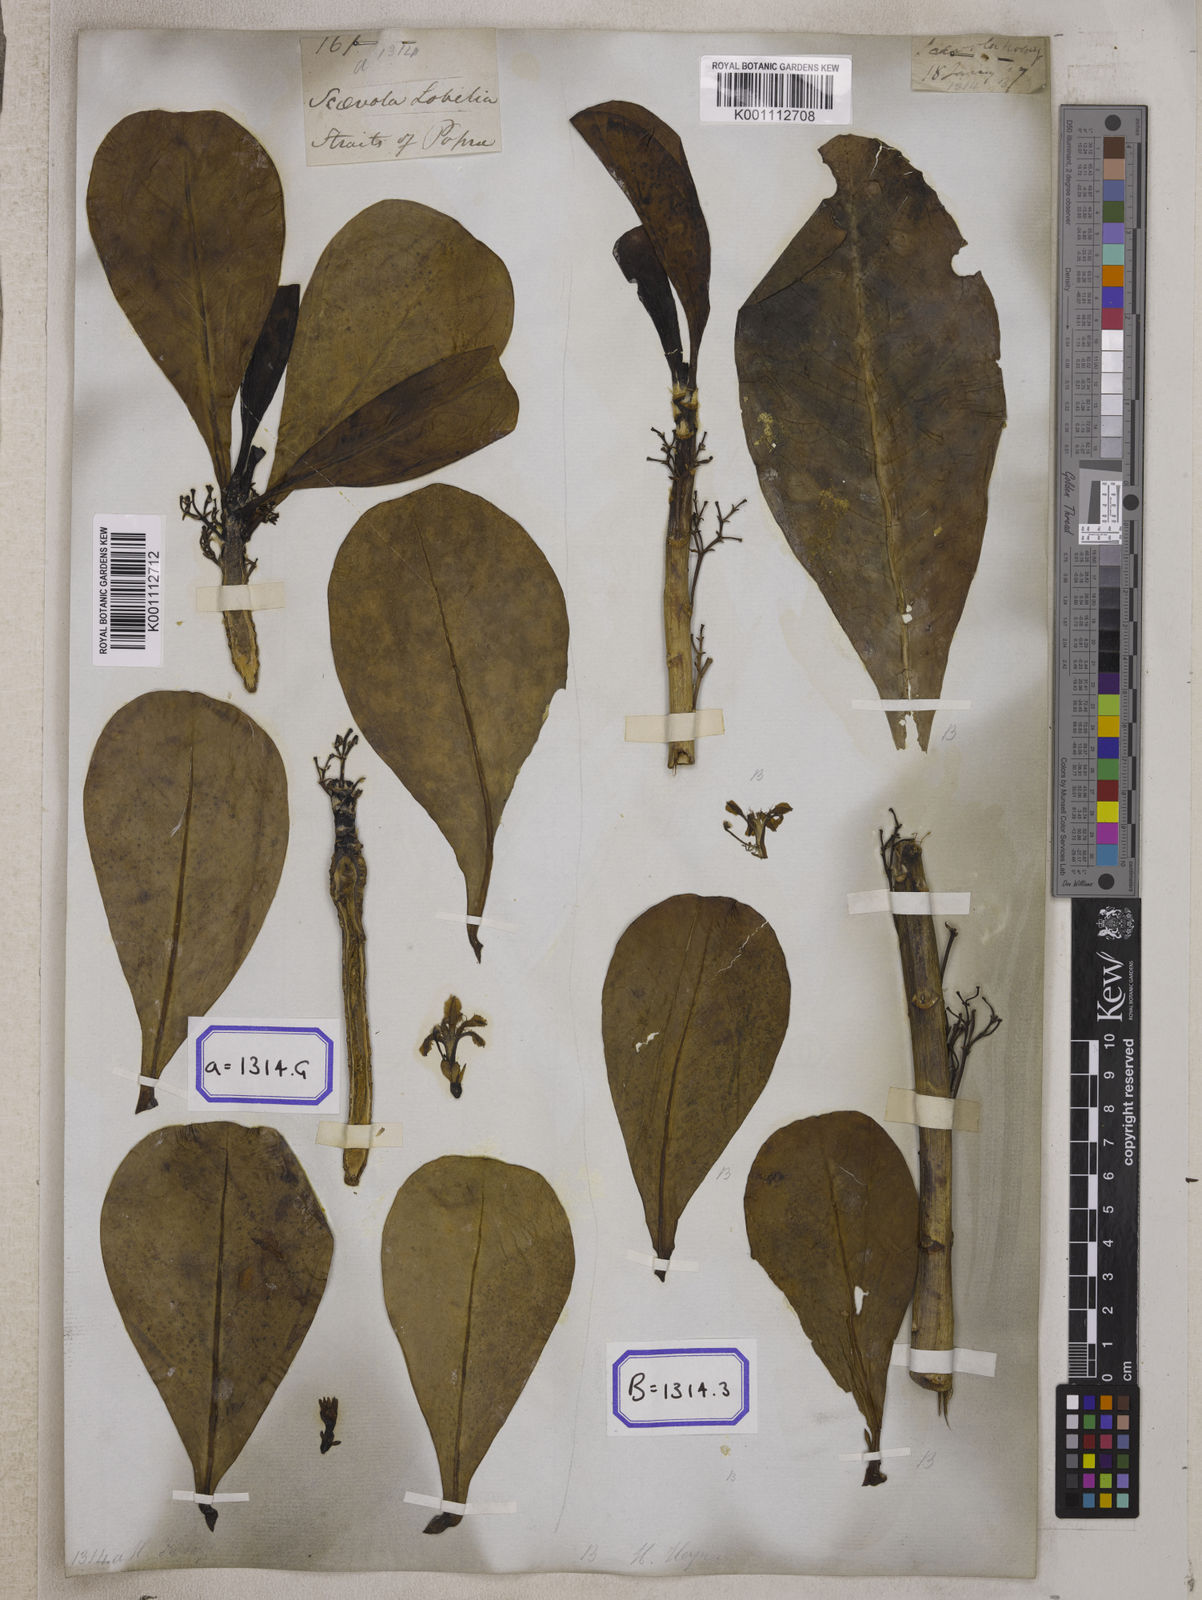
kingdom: Plantae
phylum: Tracheophyta
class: Magnoliopsida
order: Asterales
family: Goodeniaceae
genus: Scaevola
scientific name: Scaevola taccada
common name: Sea lettucetree
